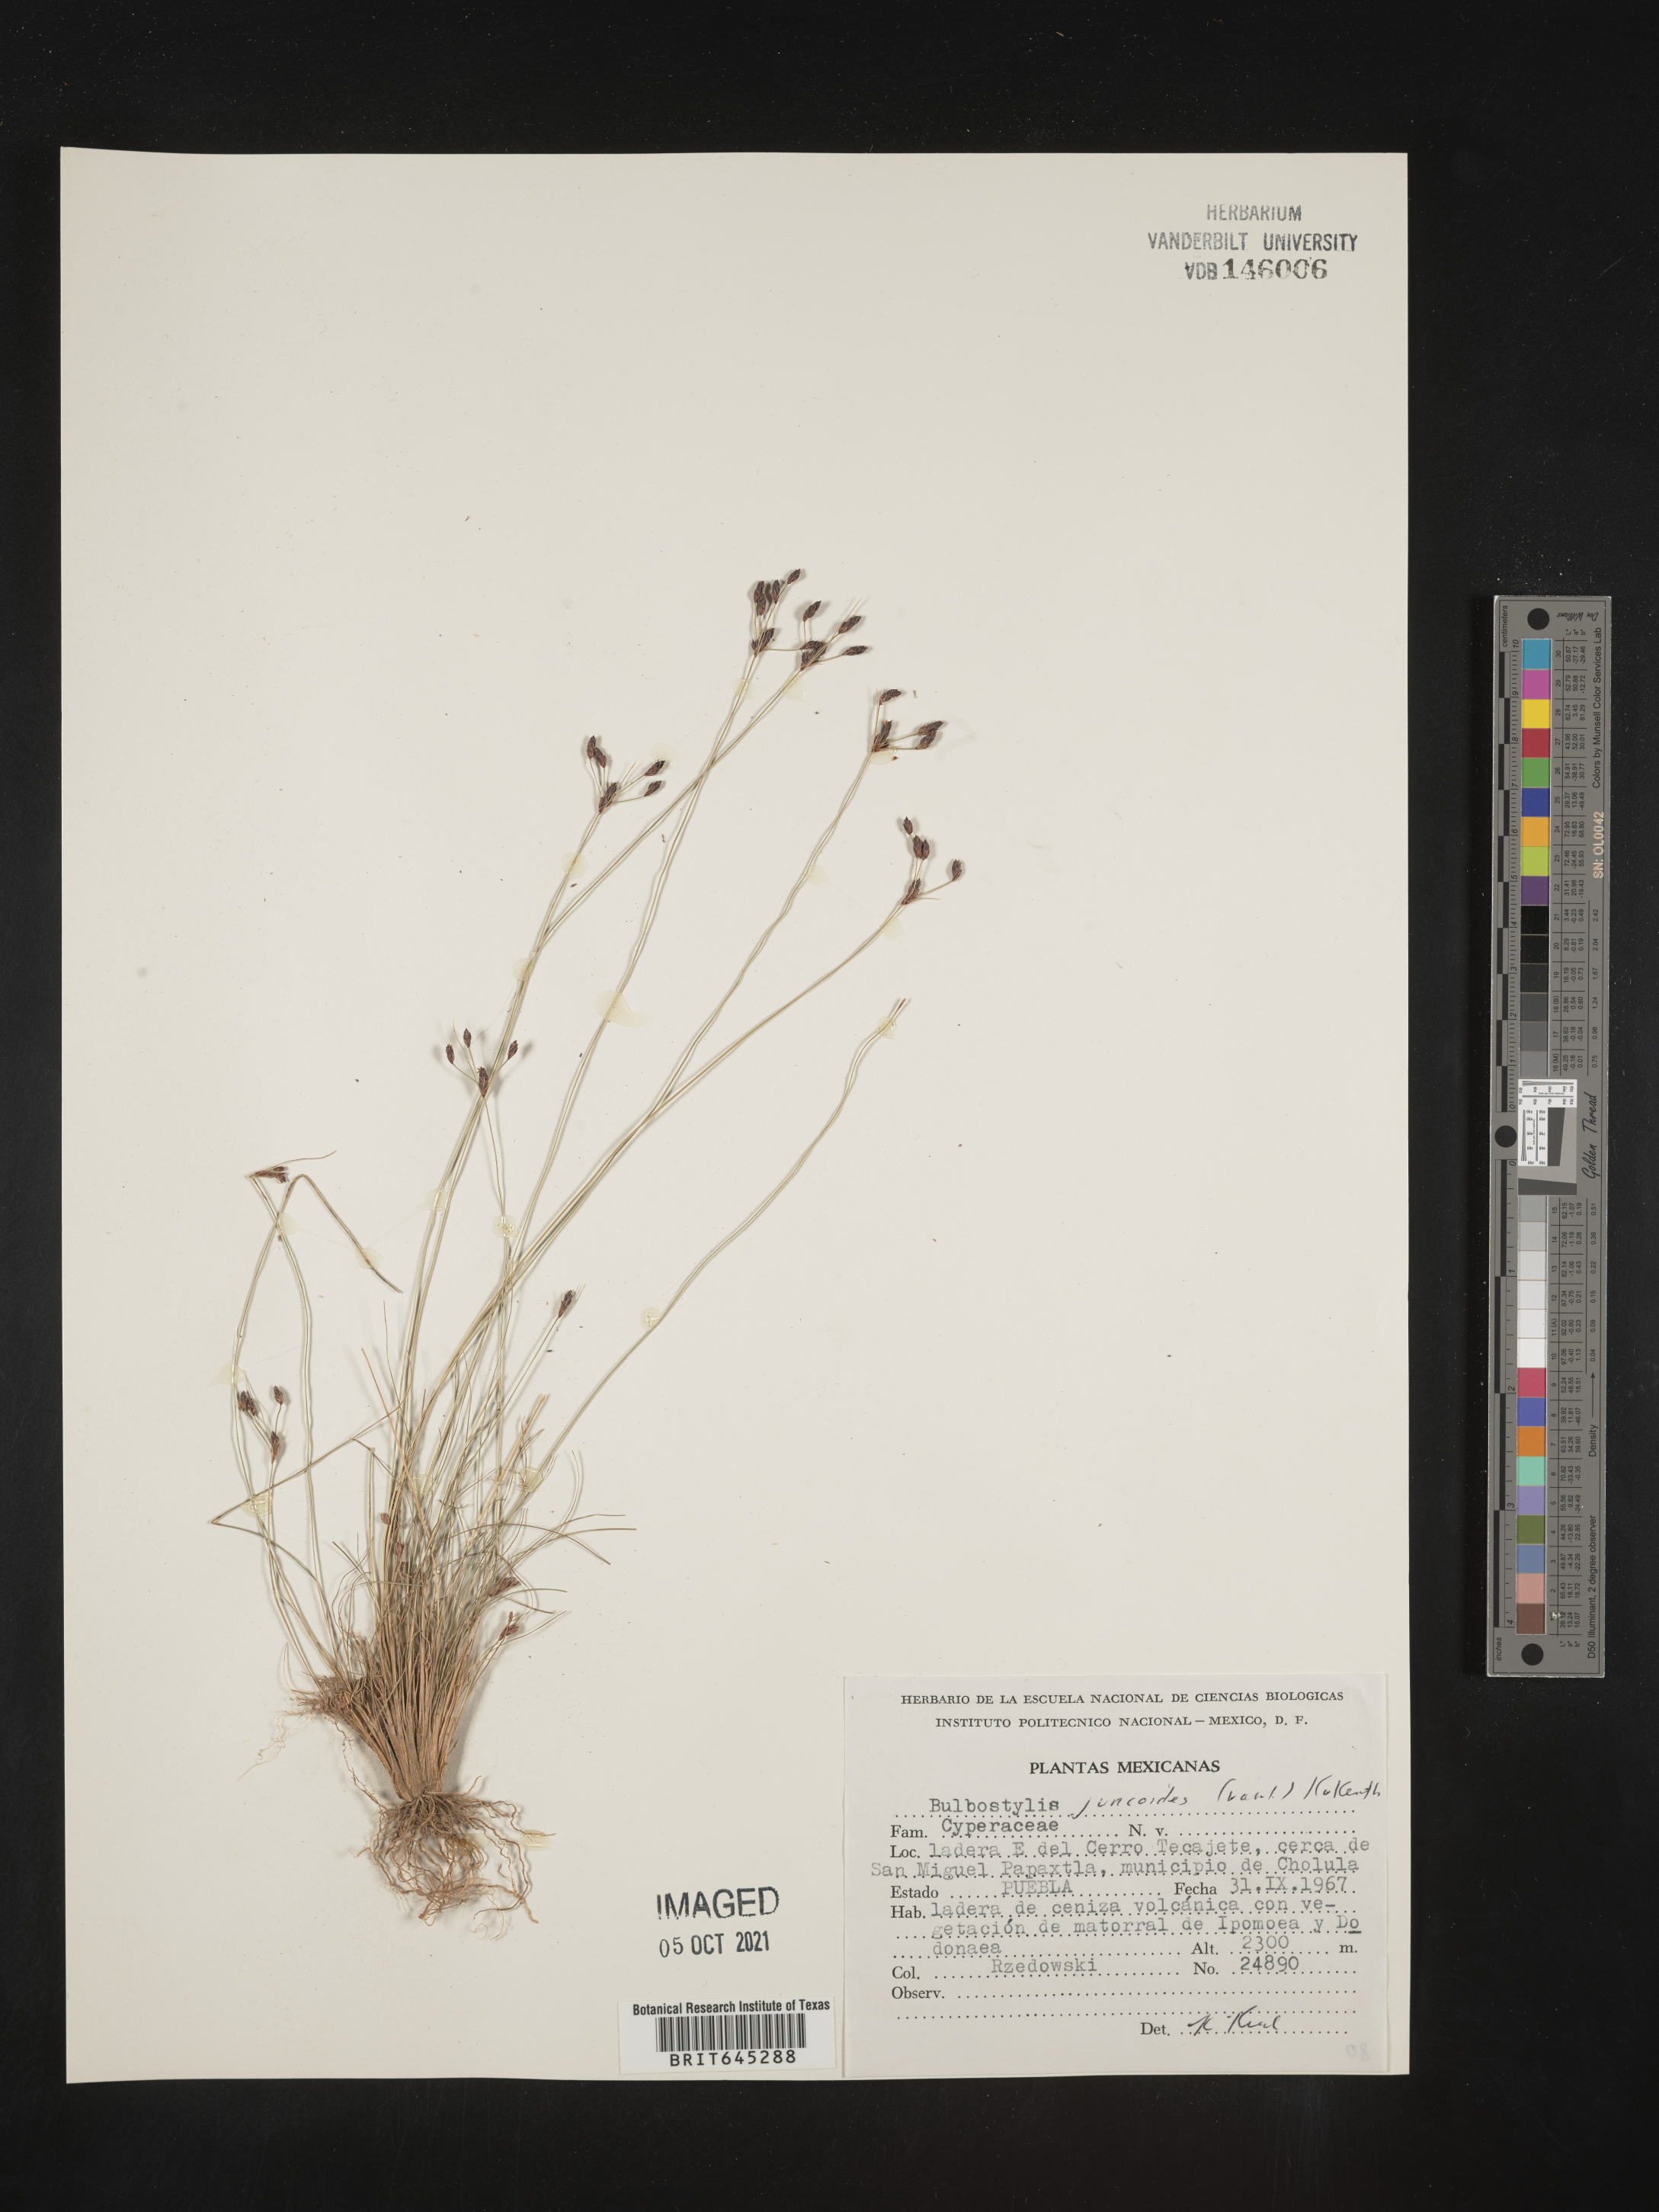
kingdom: Plantae
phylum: Tracheophyta
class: Liliopsida
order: Poales
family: Cyperaceae
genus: Bulbostylis
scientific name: Bulbostylis juncoides
